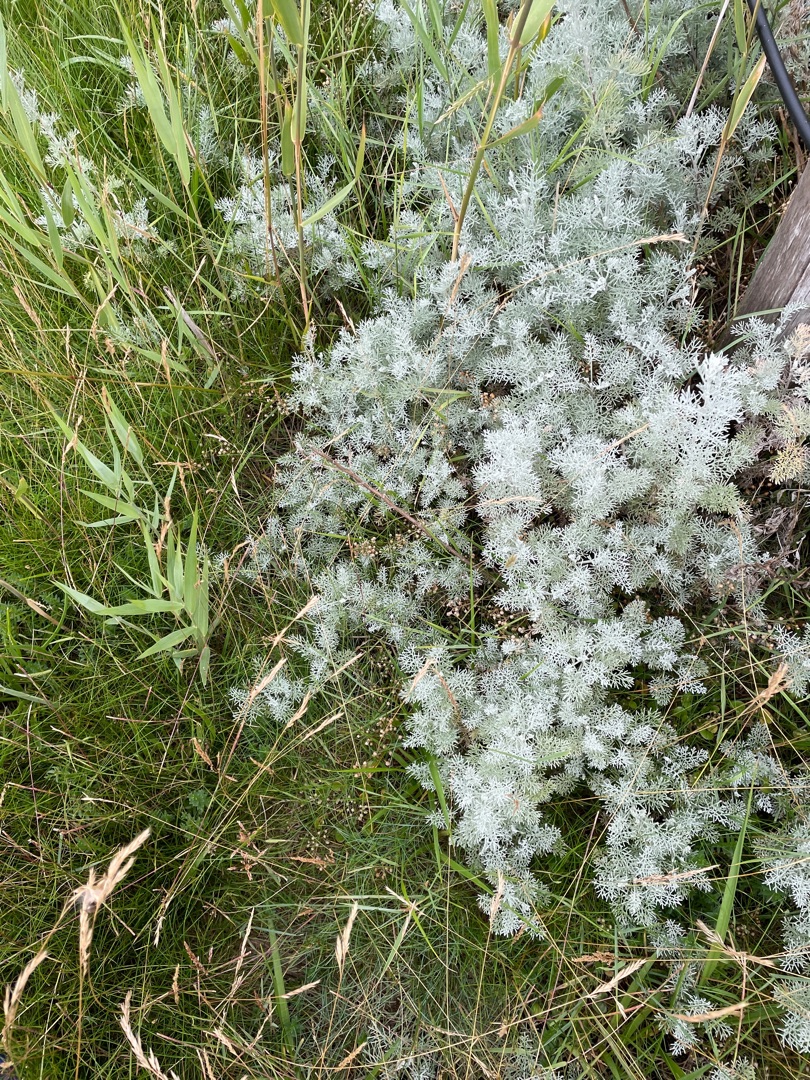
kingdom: Plantae
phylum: Tracheophyta
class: Magnoliopsida
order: Asterales
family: Asteraceae
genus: Artemisia
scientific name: Artemisia maritima
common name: Strandmalurt
